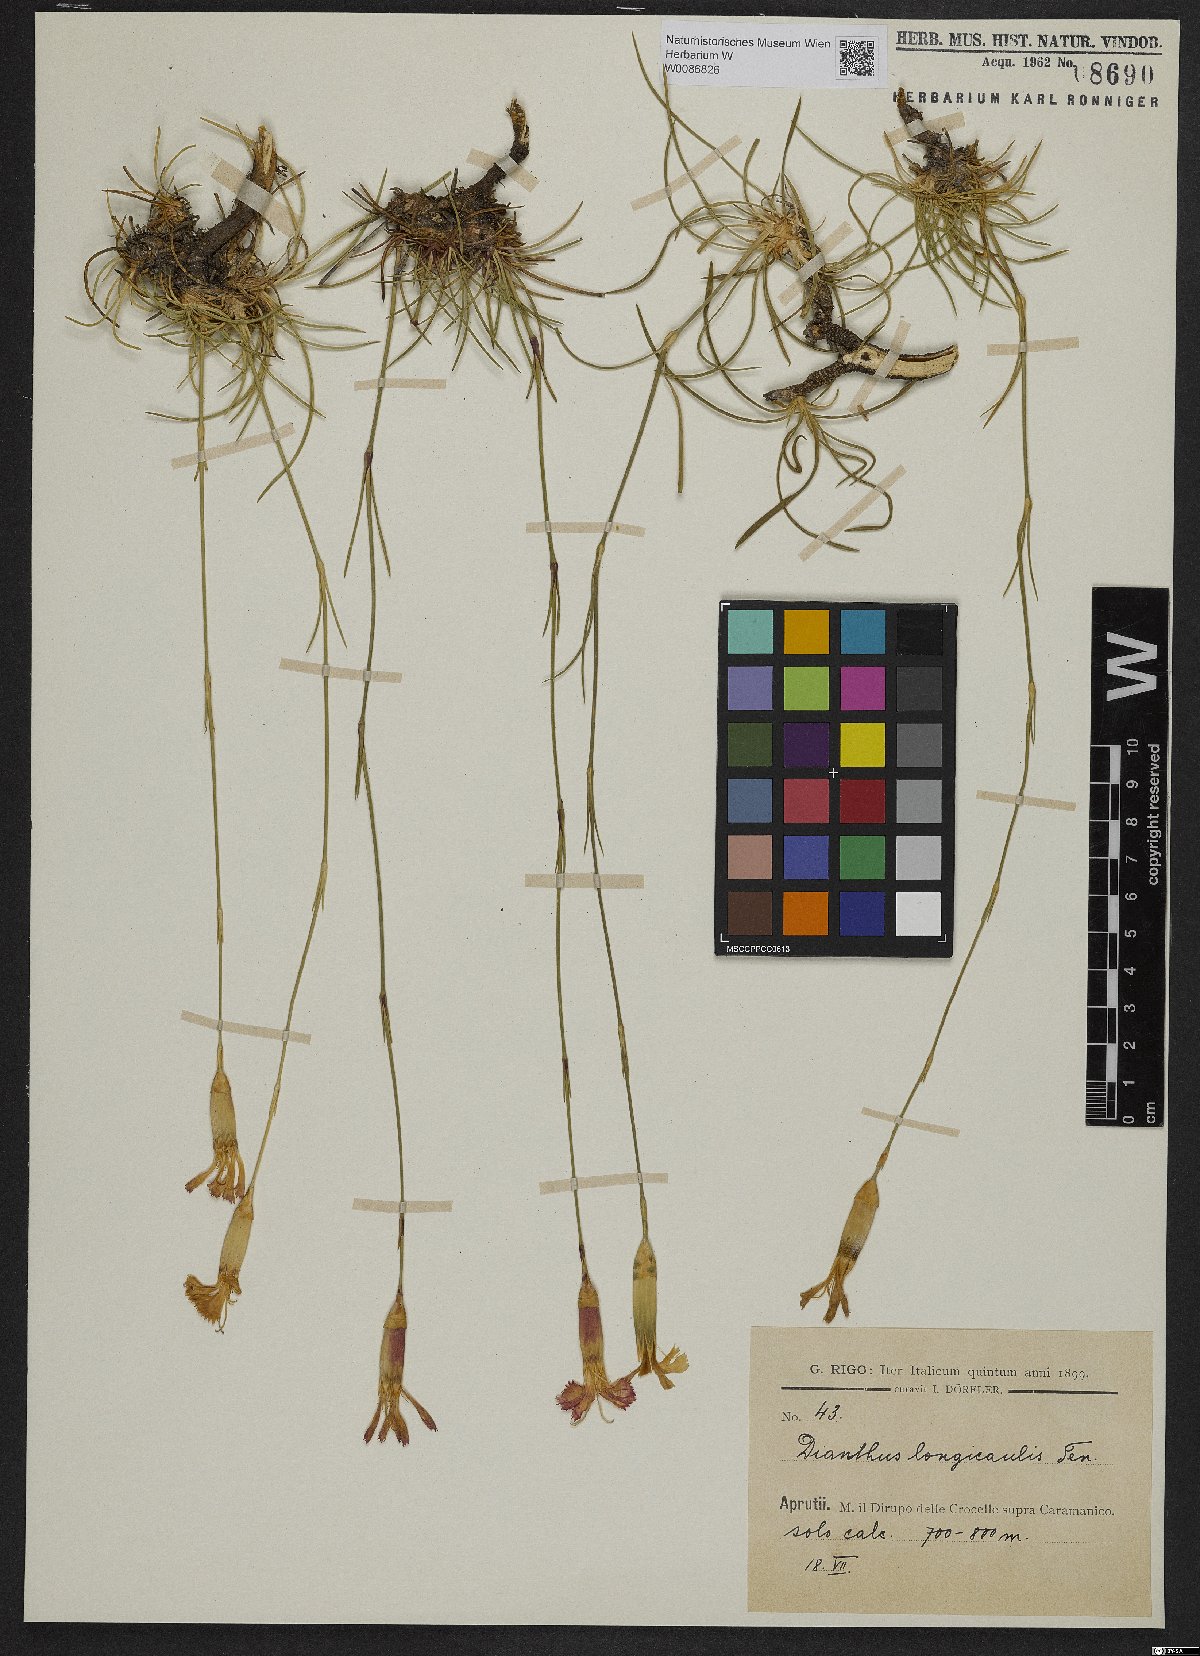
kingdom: Plantae
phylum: Tracheophyta
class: Magnoliopsida
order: Caryophyllales
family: Caryophyllaceae
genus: Dianthus
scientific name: Dianthus siculus
